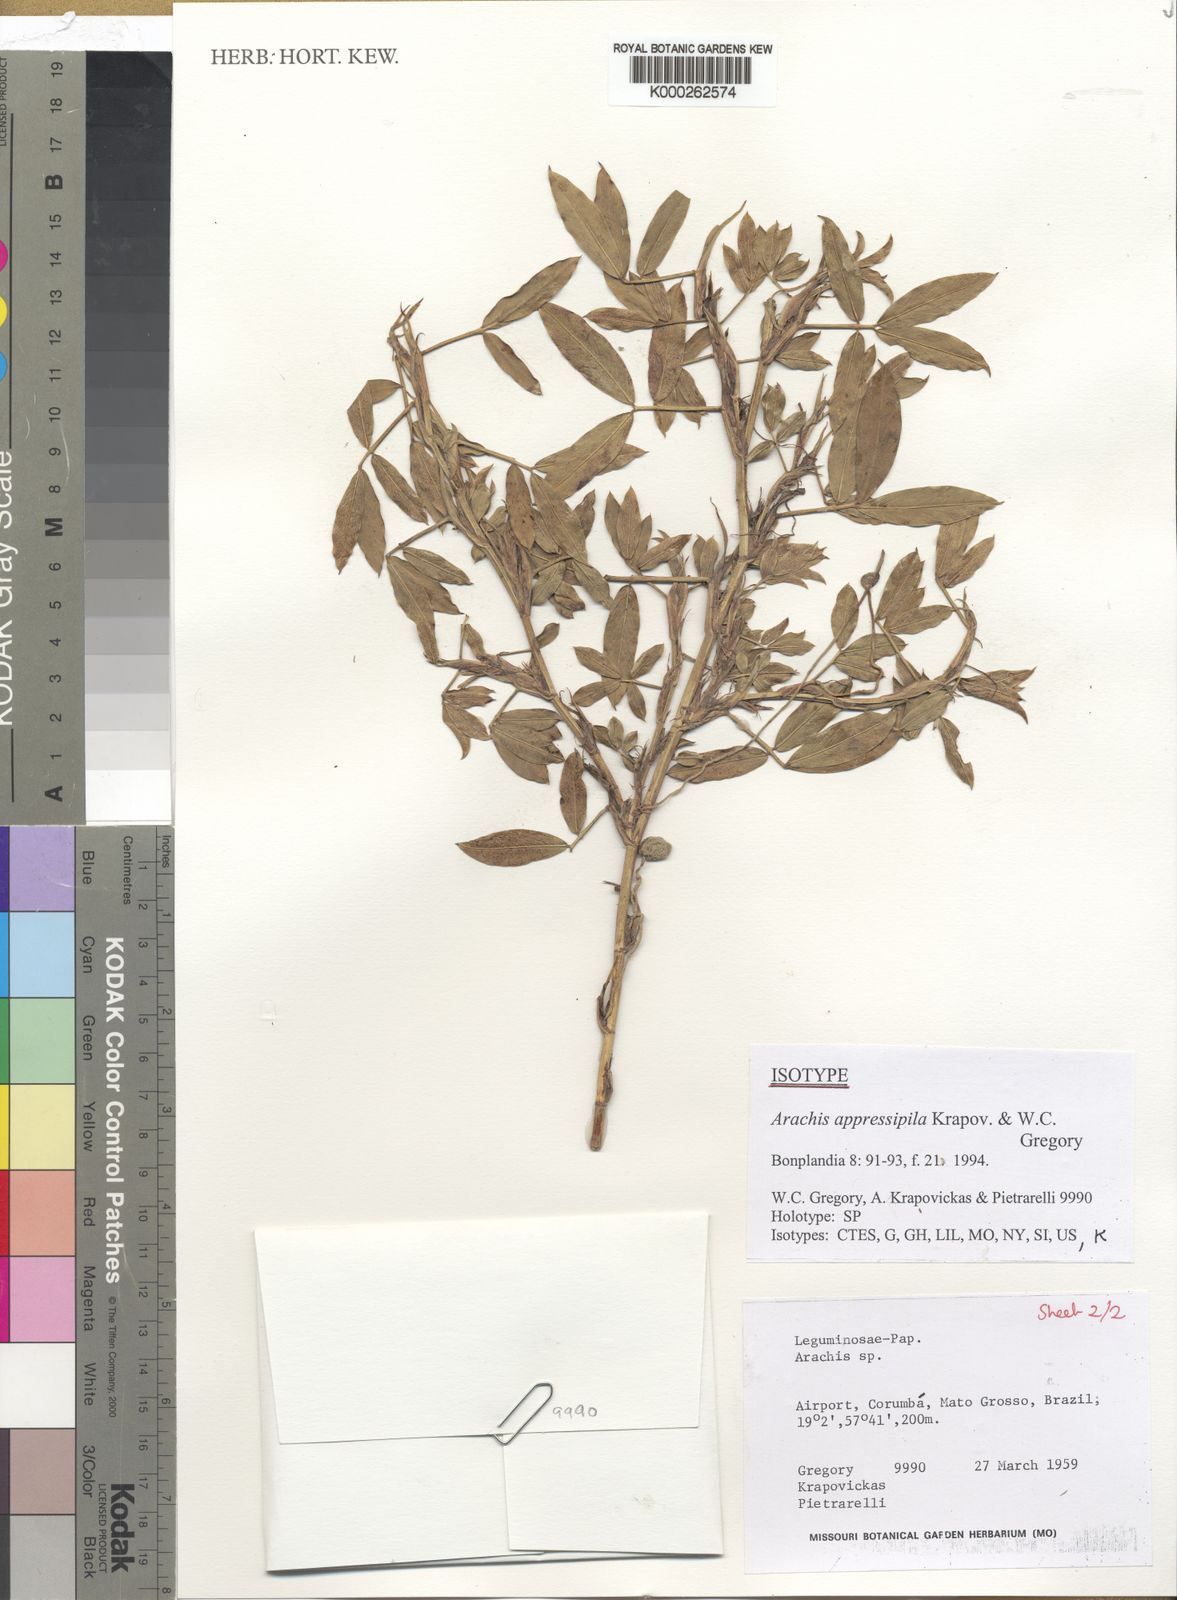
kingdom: Plantae
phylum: Tracheophyta
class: Magnoliopsida
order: Fabales
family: Fabaceae
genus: Arachis
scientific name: Arachis appressipila
